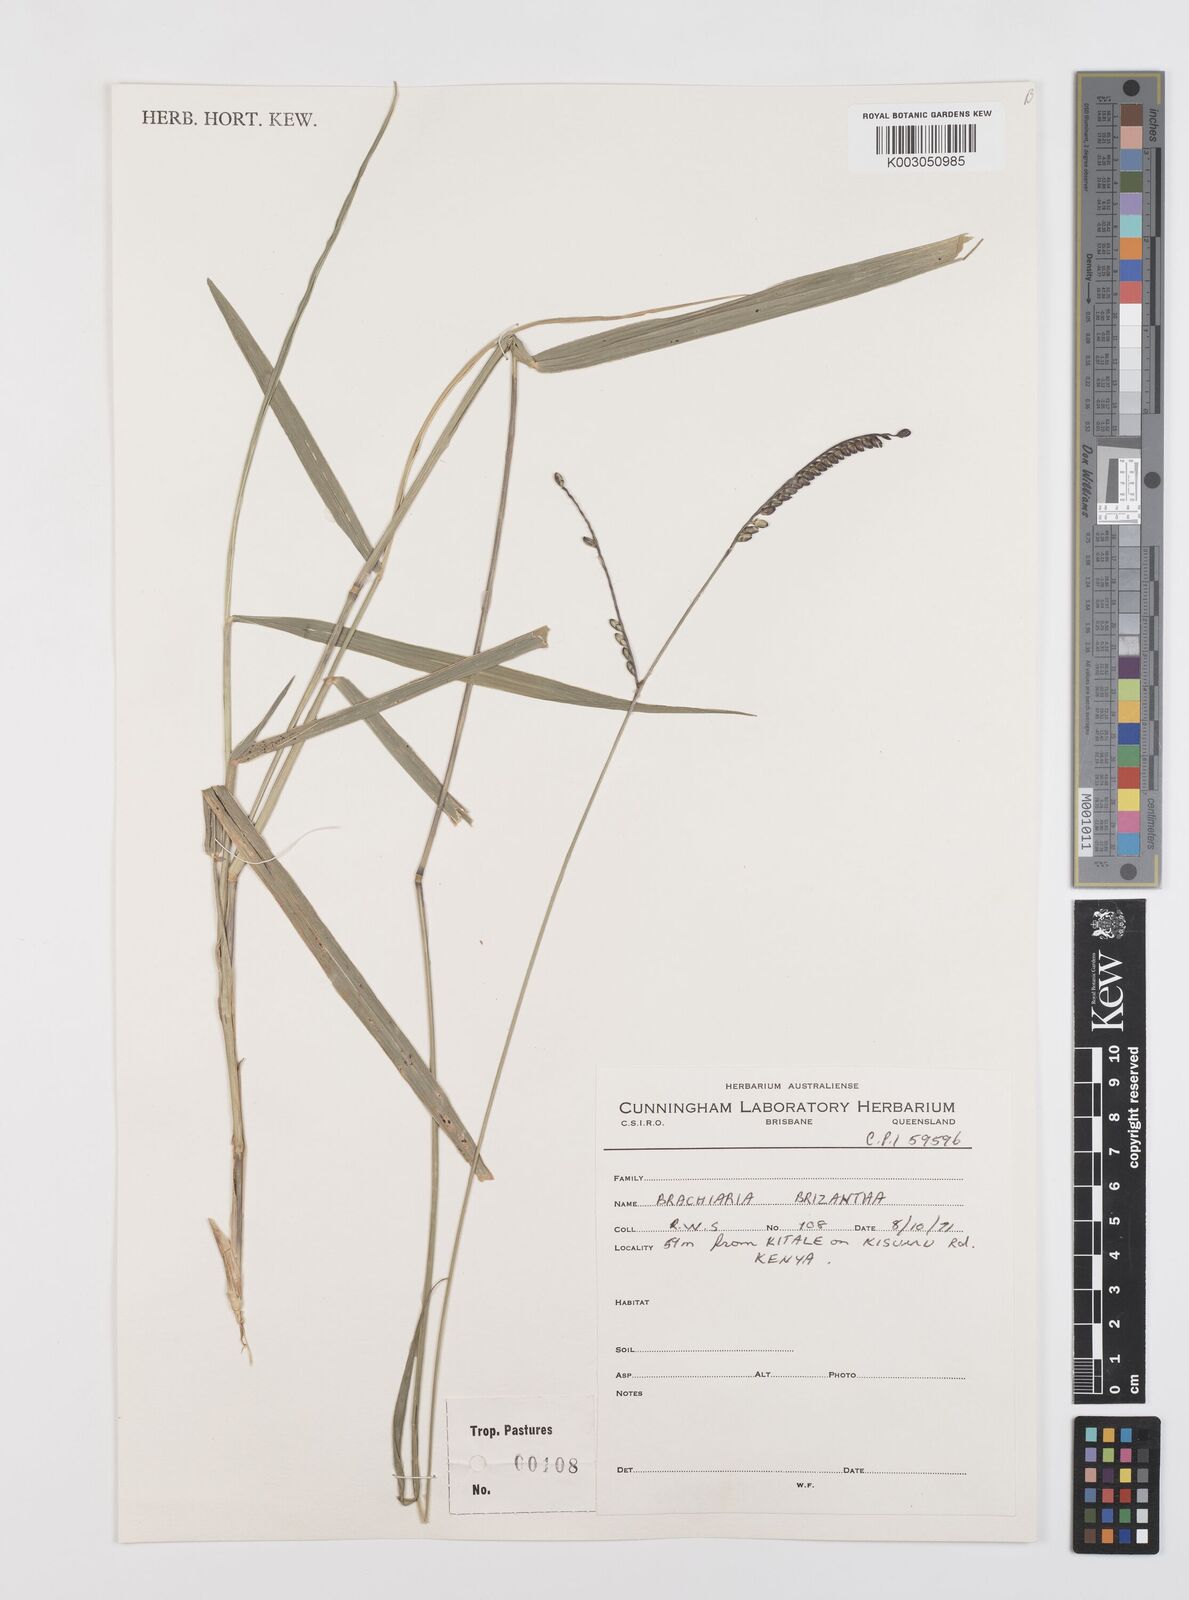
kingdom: Plantae
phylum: Tracheophyta
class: Liliopsida
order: Poales
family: Poaceae
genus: Urochloa
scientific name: Urochloa brizantha
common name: Palisade signalgrass
